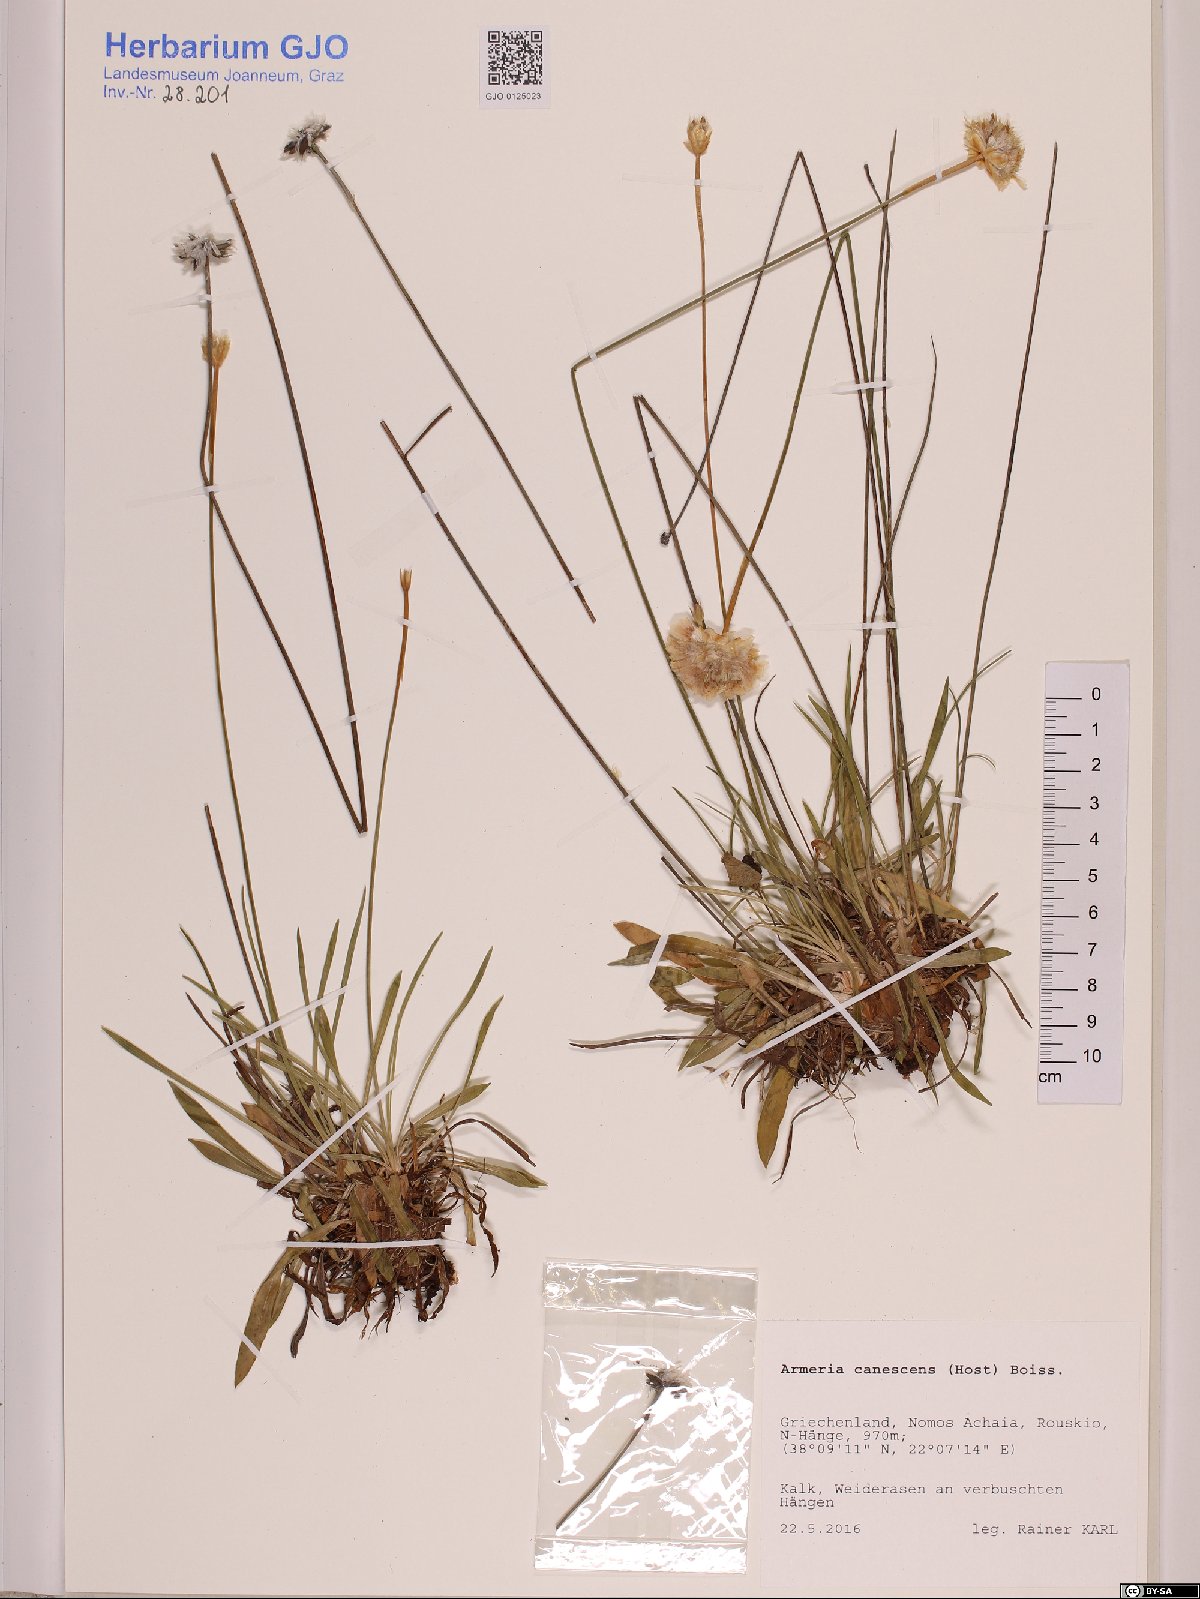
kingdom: Plantae
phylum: Tracheophyta
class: Magnoliopsida
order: Caryophyllales
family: Plumbaginaceae
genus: Armeria
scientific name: Armeria canescens
